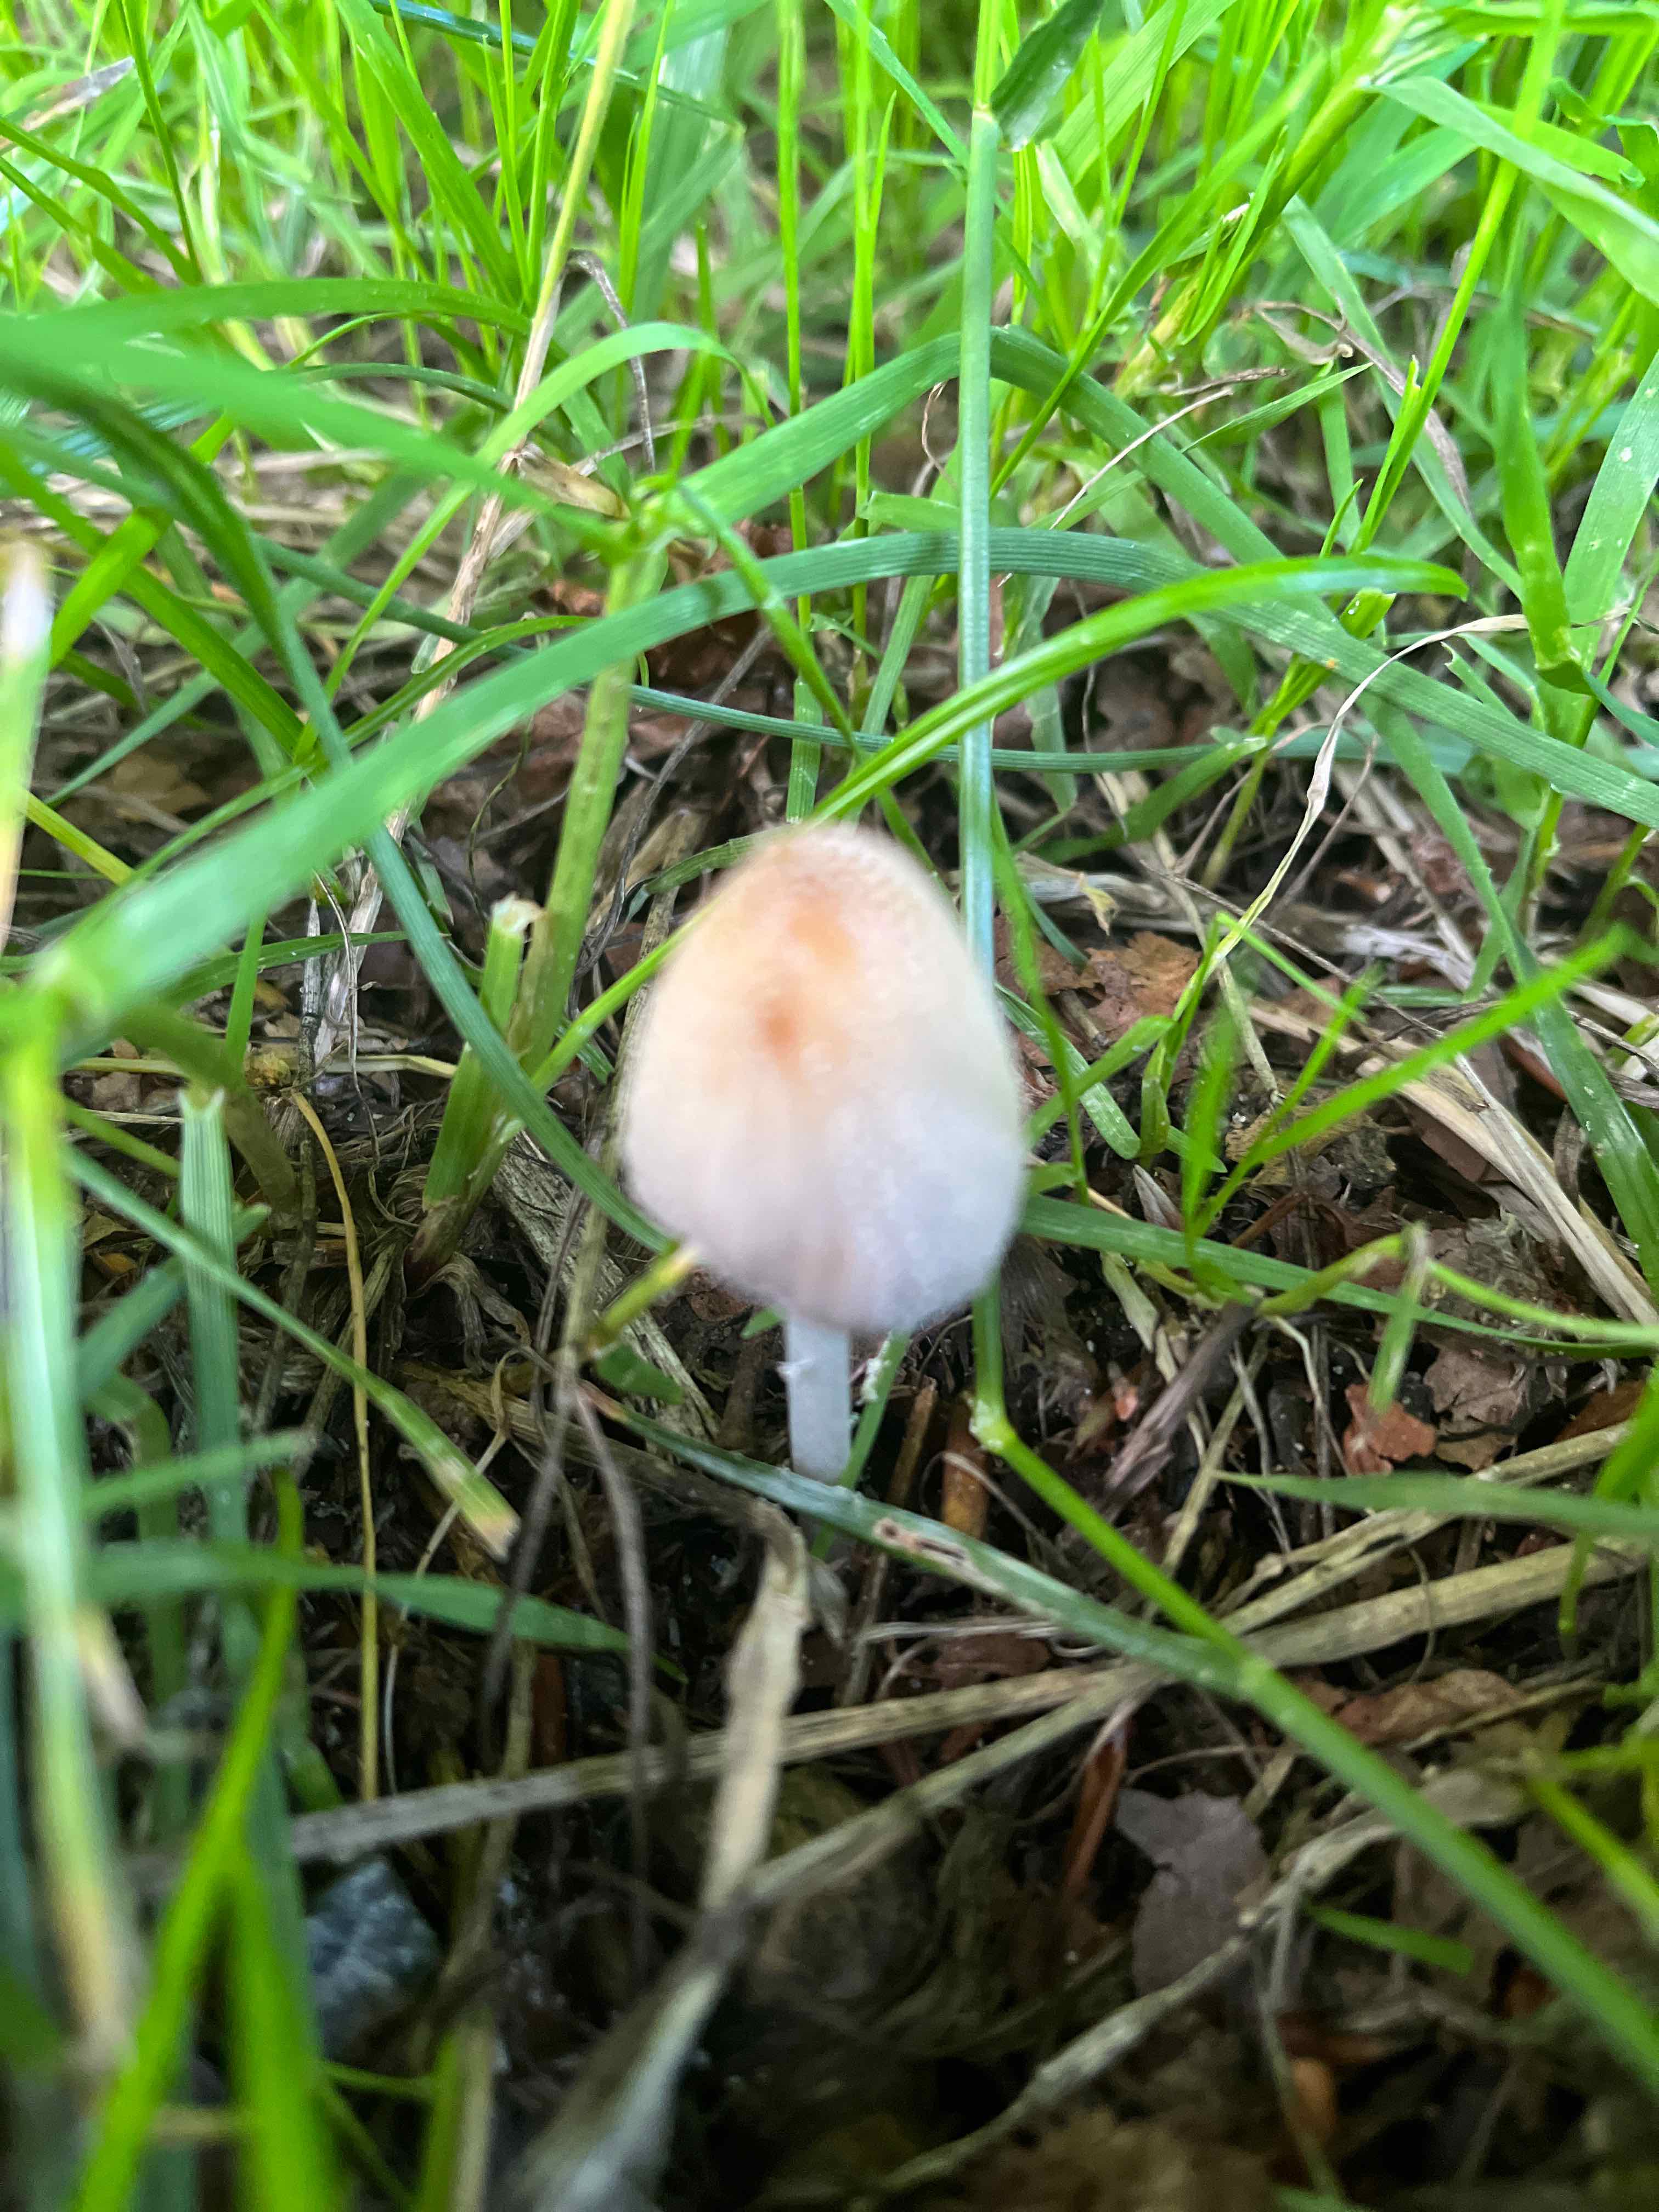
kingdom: Fungi
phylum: Basidiomycota
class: Agaricomycetes
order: Agaricales
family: Psathyrellaceae
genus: Coprinellus
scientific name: Coprinellus
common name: blækhat
